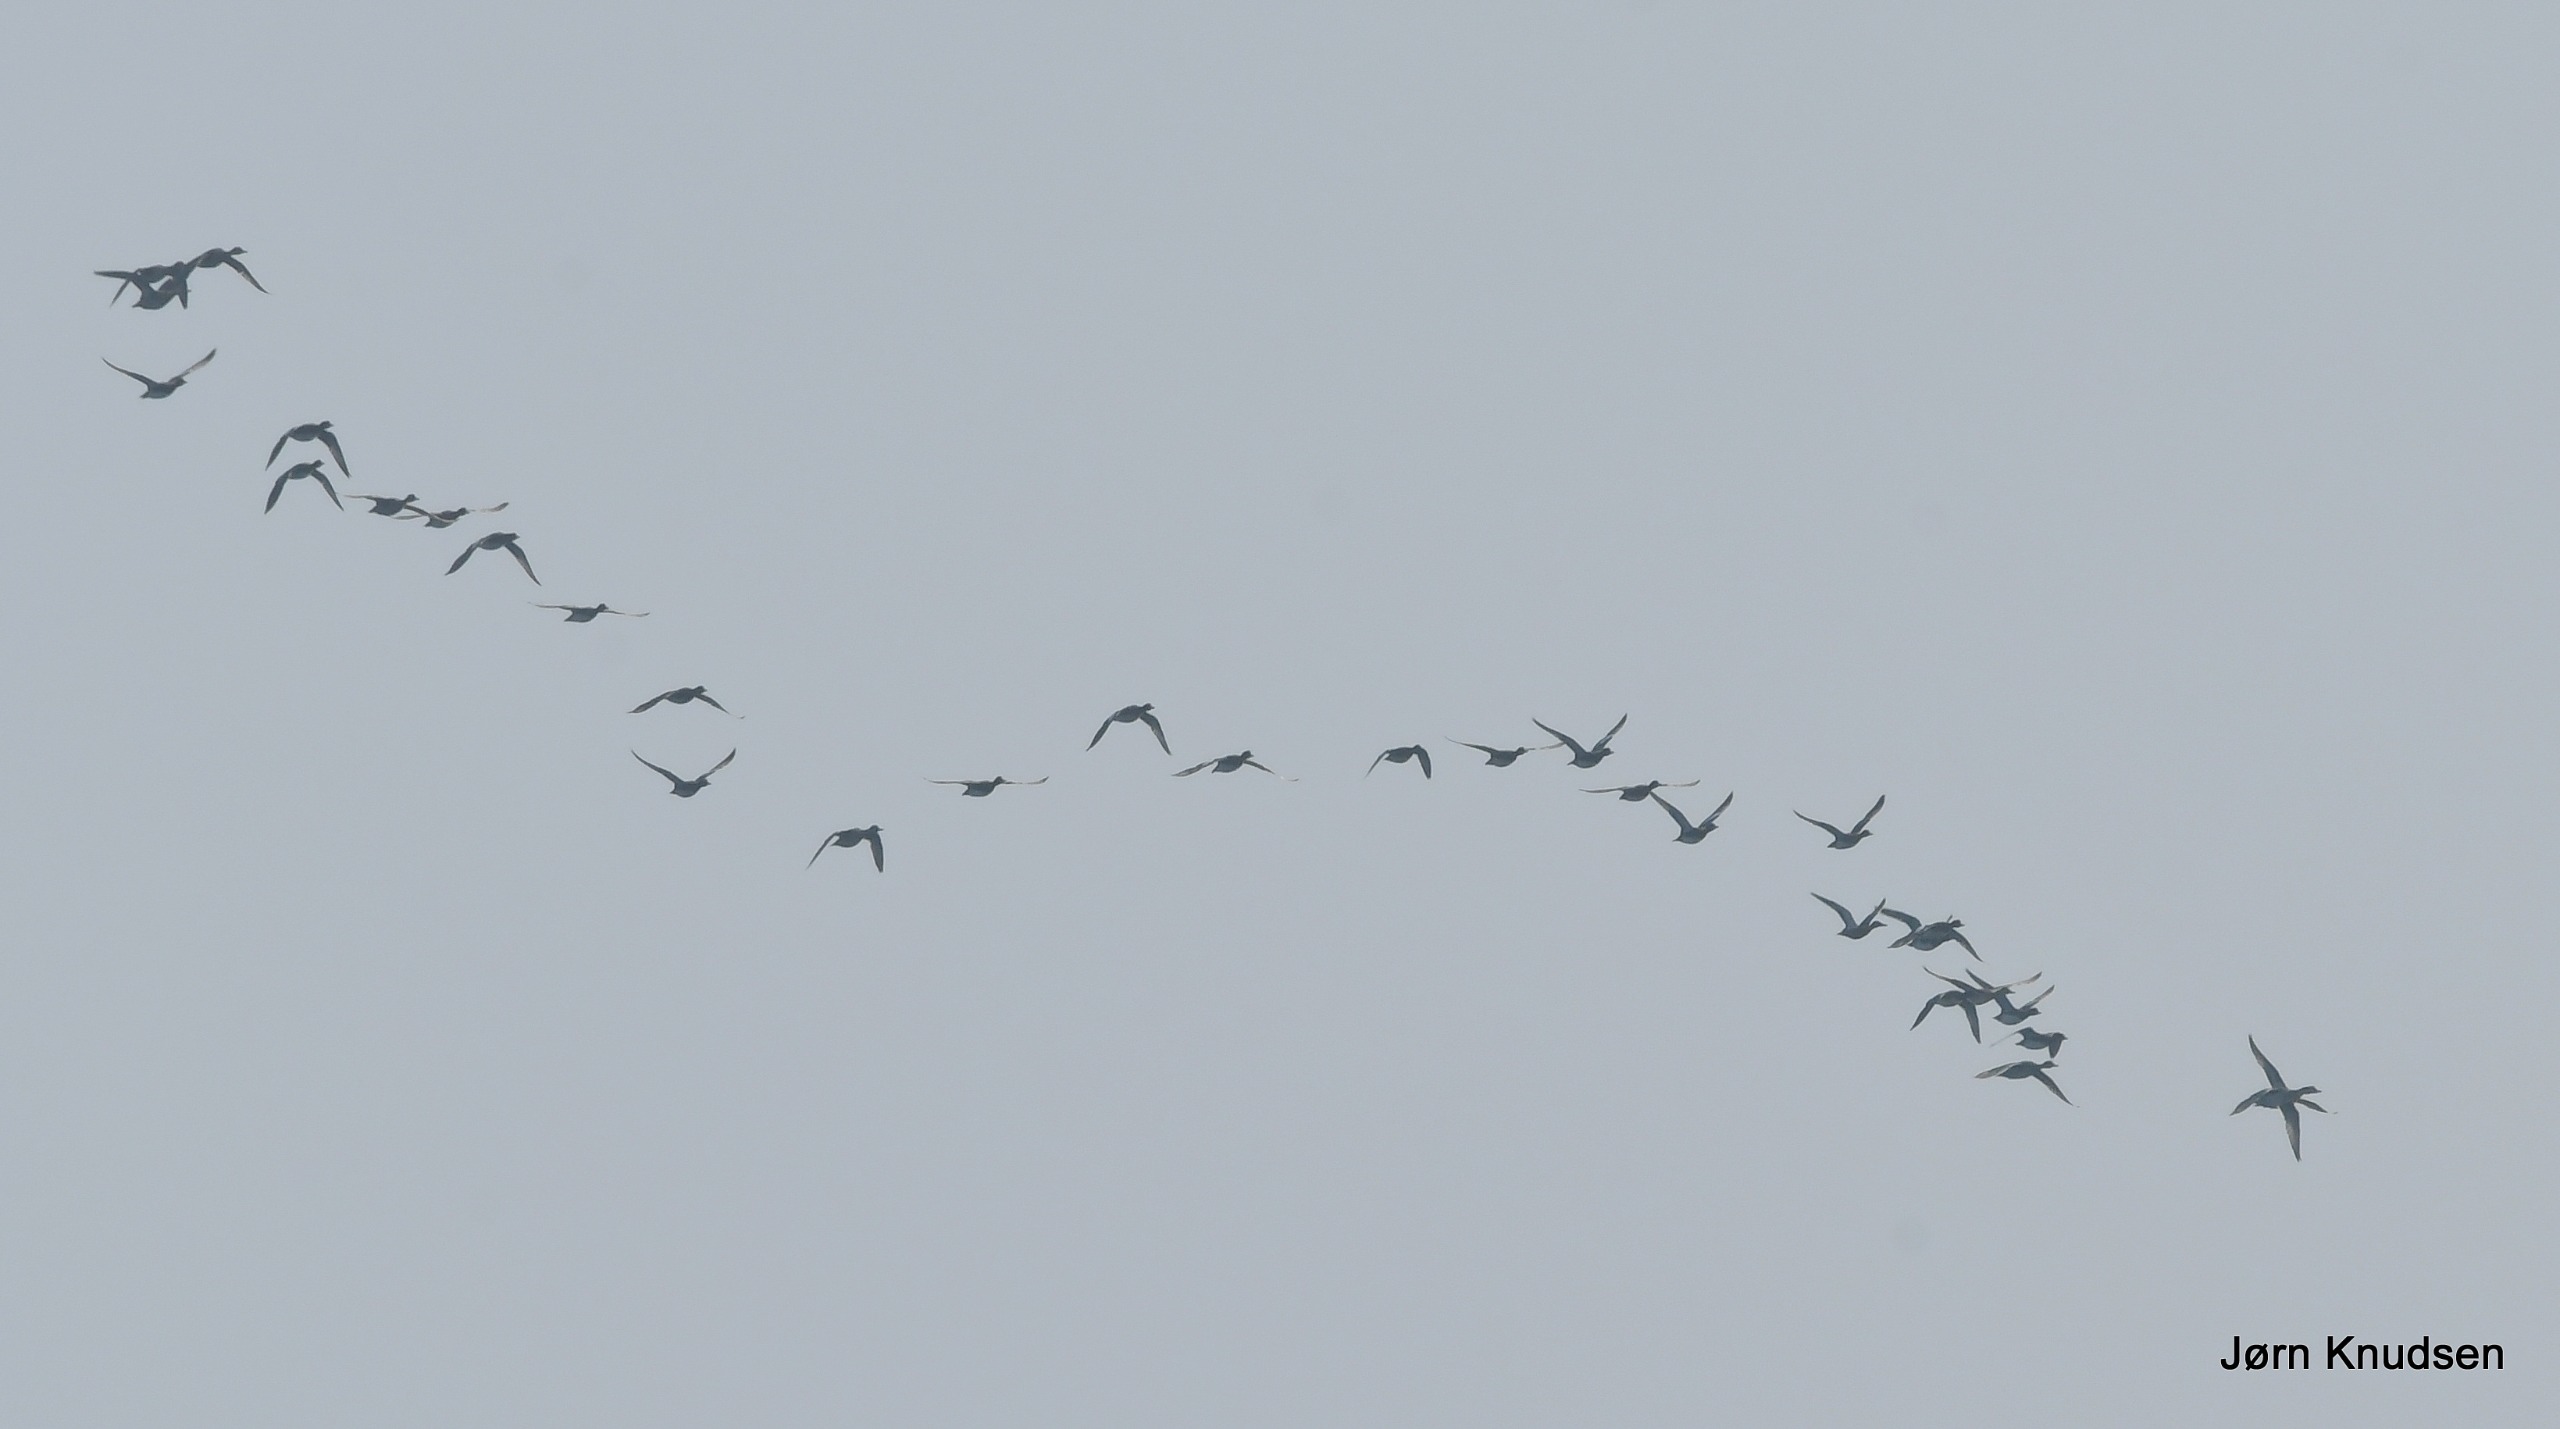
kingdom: Animalia
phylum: Chordata
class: Aves
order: Anseriformes
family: Anatidae
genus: Mareca
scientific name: Mareca penelope
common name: Pibeand
